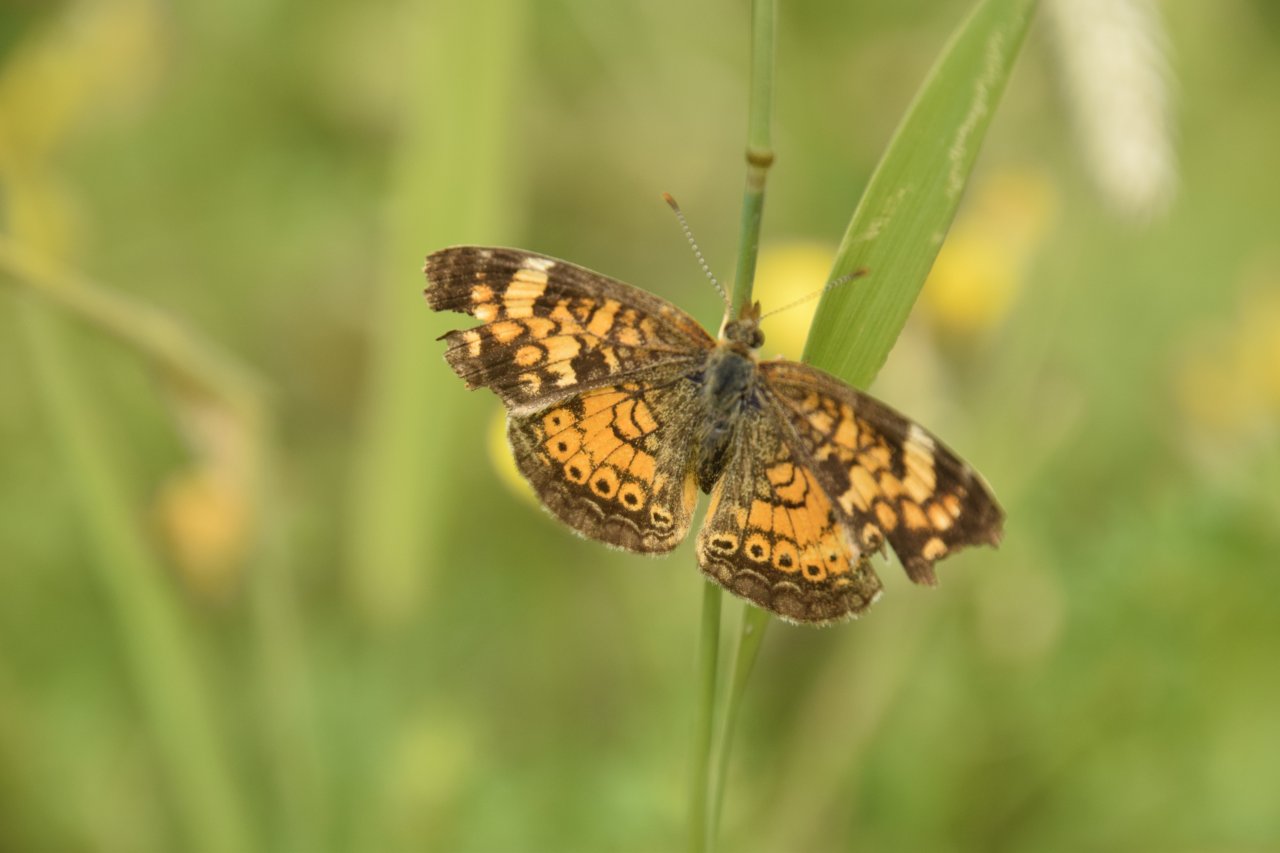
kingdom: Animalia
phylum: Arthropoda
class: Insecta
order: Lepidoptera
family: Nymphalidae
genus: Phyciodes
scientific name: Phyciodes tharos
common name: Pearl Crescent
